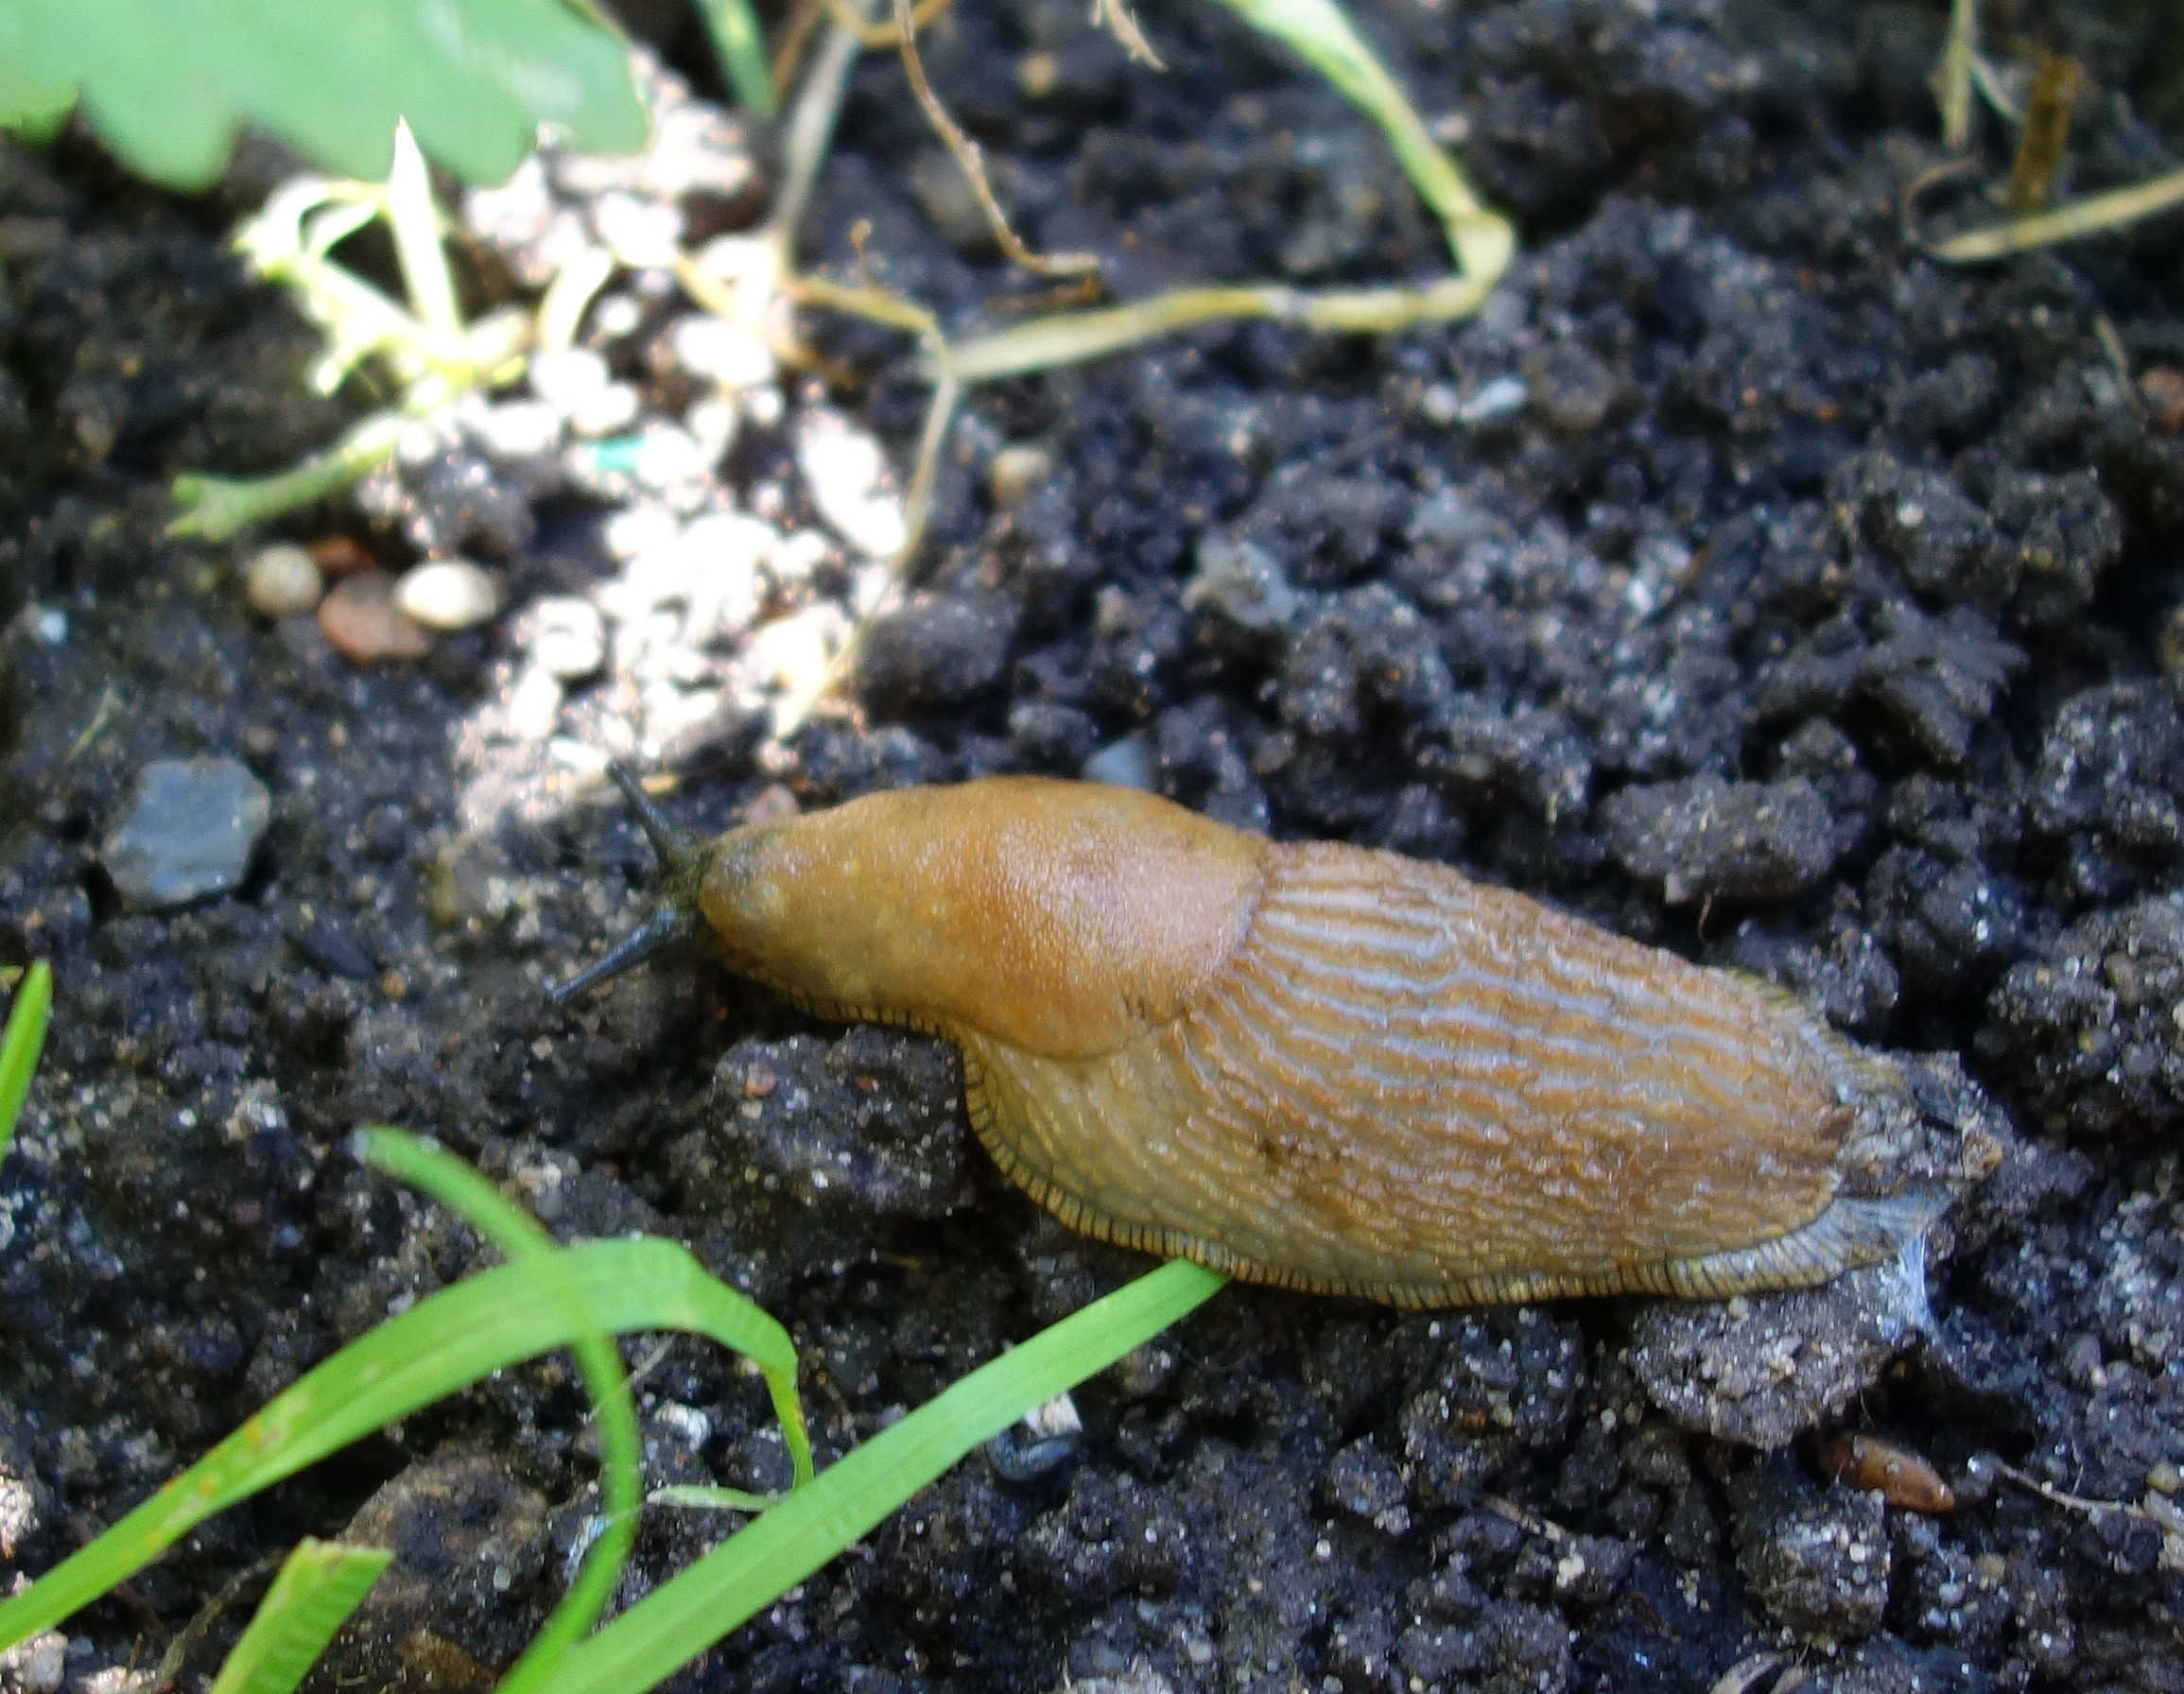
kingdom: Animalia
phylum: Mollusca
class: Gastropoda
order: Stylommatophora
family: Arionidae
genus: Arion
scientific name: Arion vulgaris
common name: Iberisk skovsnegl
